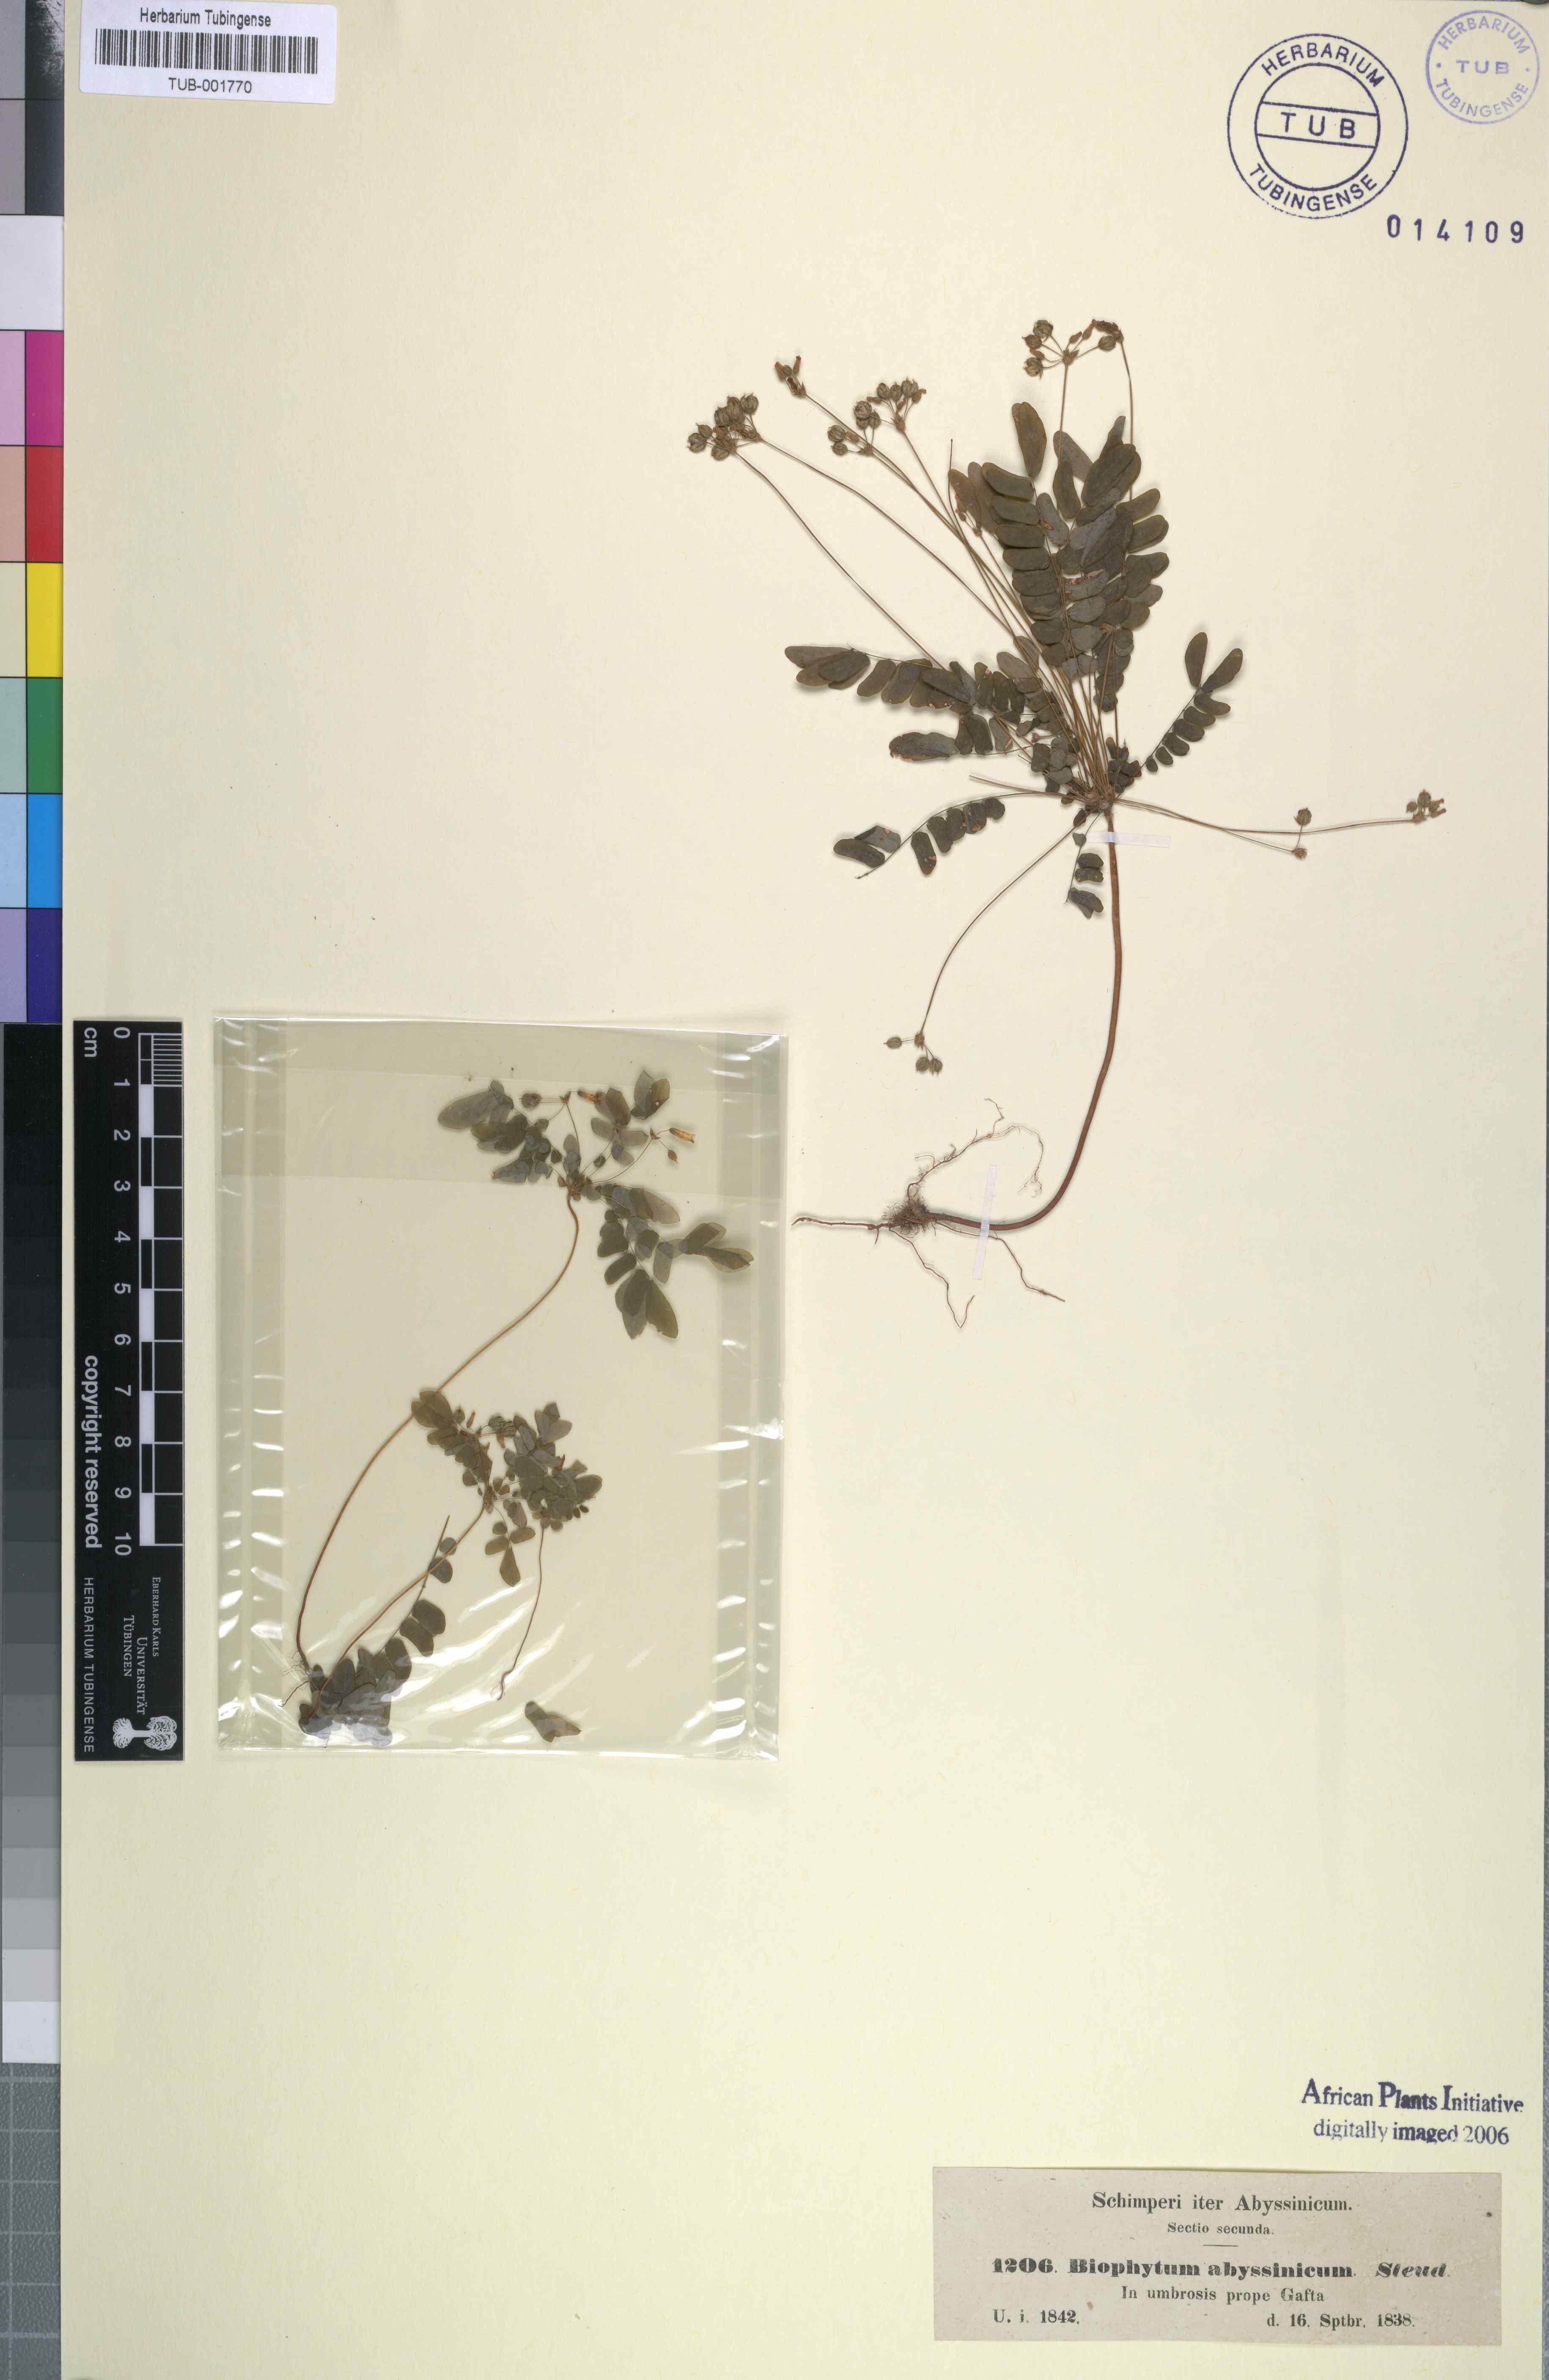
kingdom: Plantae
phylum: Tracheophyta
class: Magnoliopsida
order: Oxalidales
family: Oxalidaceae
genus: Biophytum
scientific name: Biophytum abyssinicum
